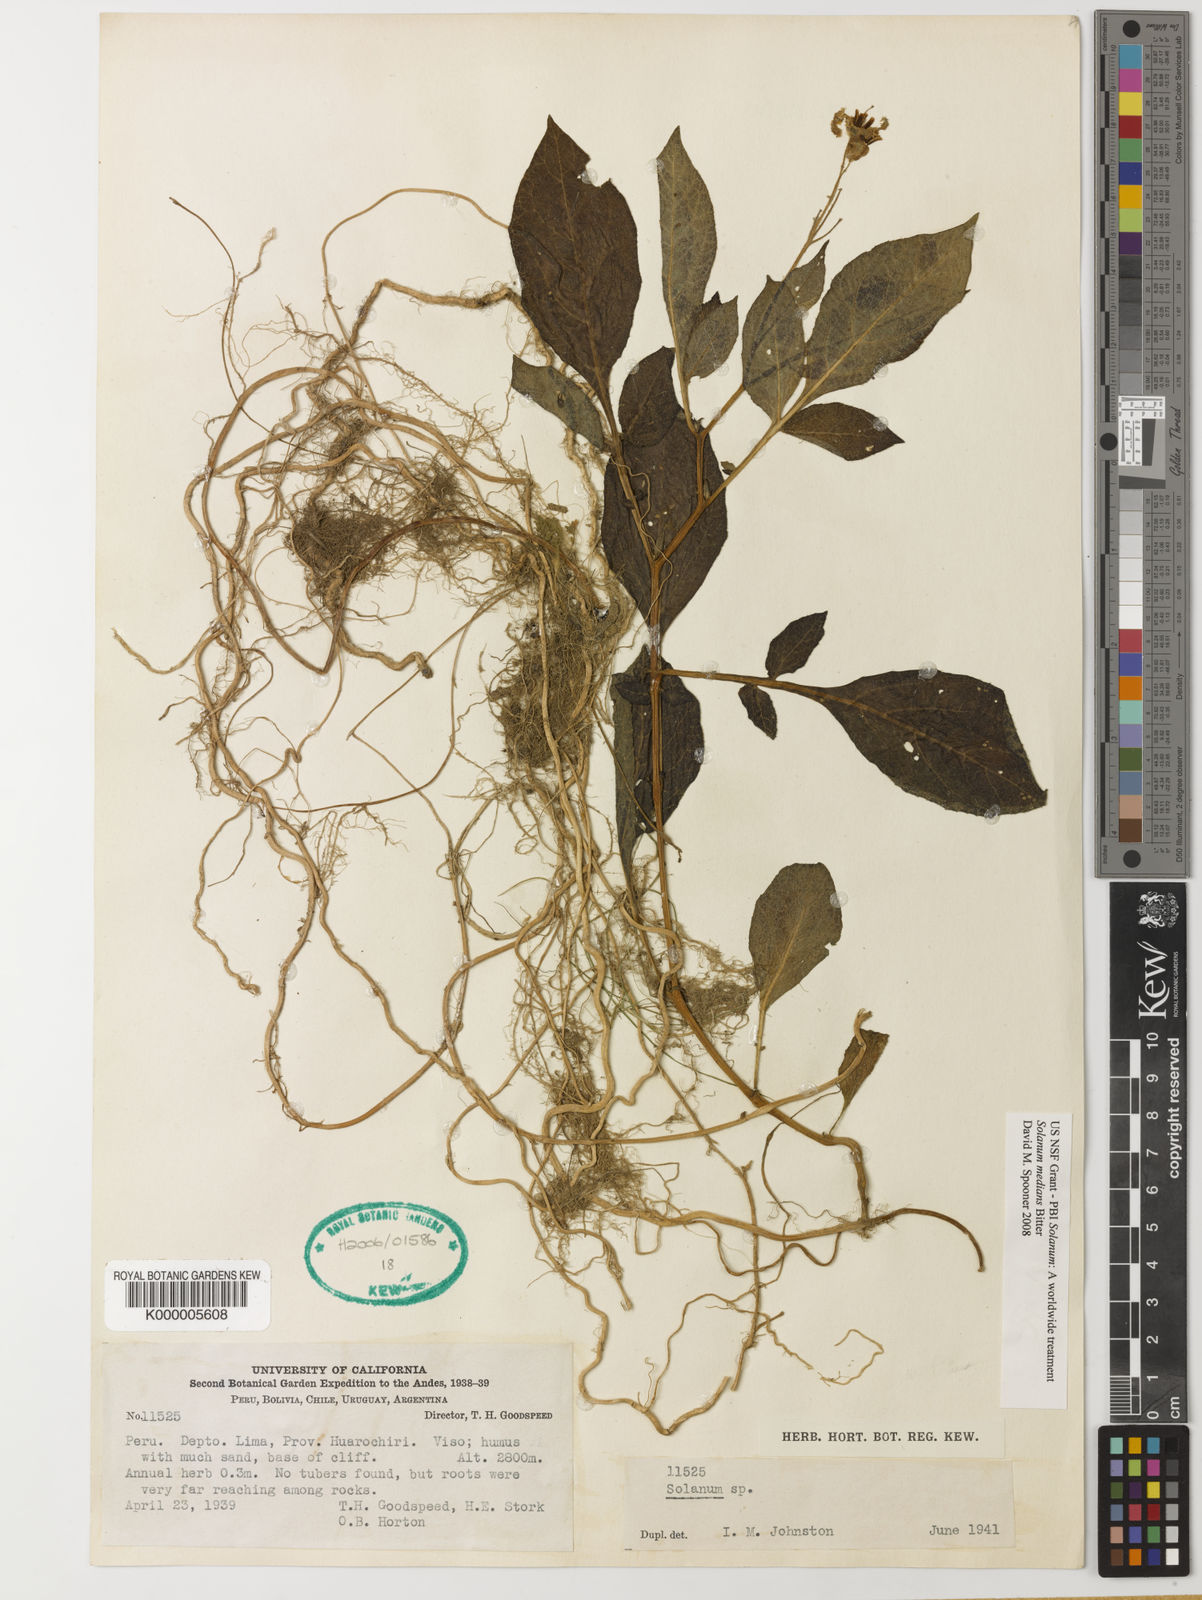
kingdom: Plantae
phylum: Tracheophyta
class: Magnoliopsida
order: Solanales
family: Solanaceae
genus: Solanum
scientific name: Solanum medians
